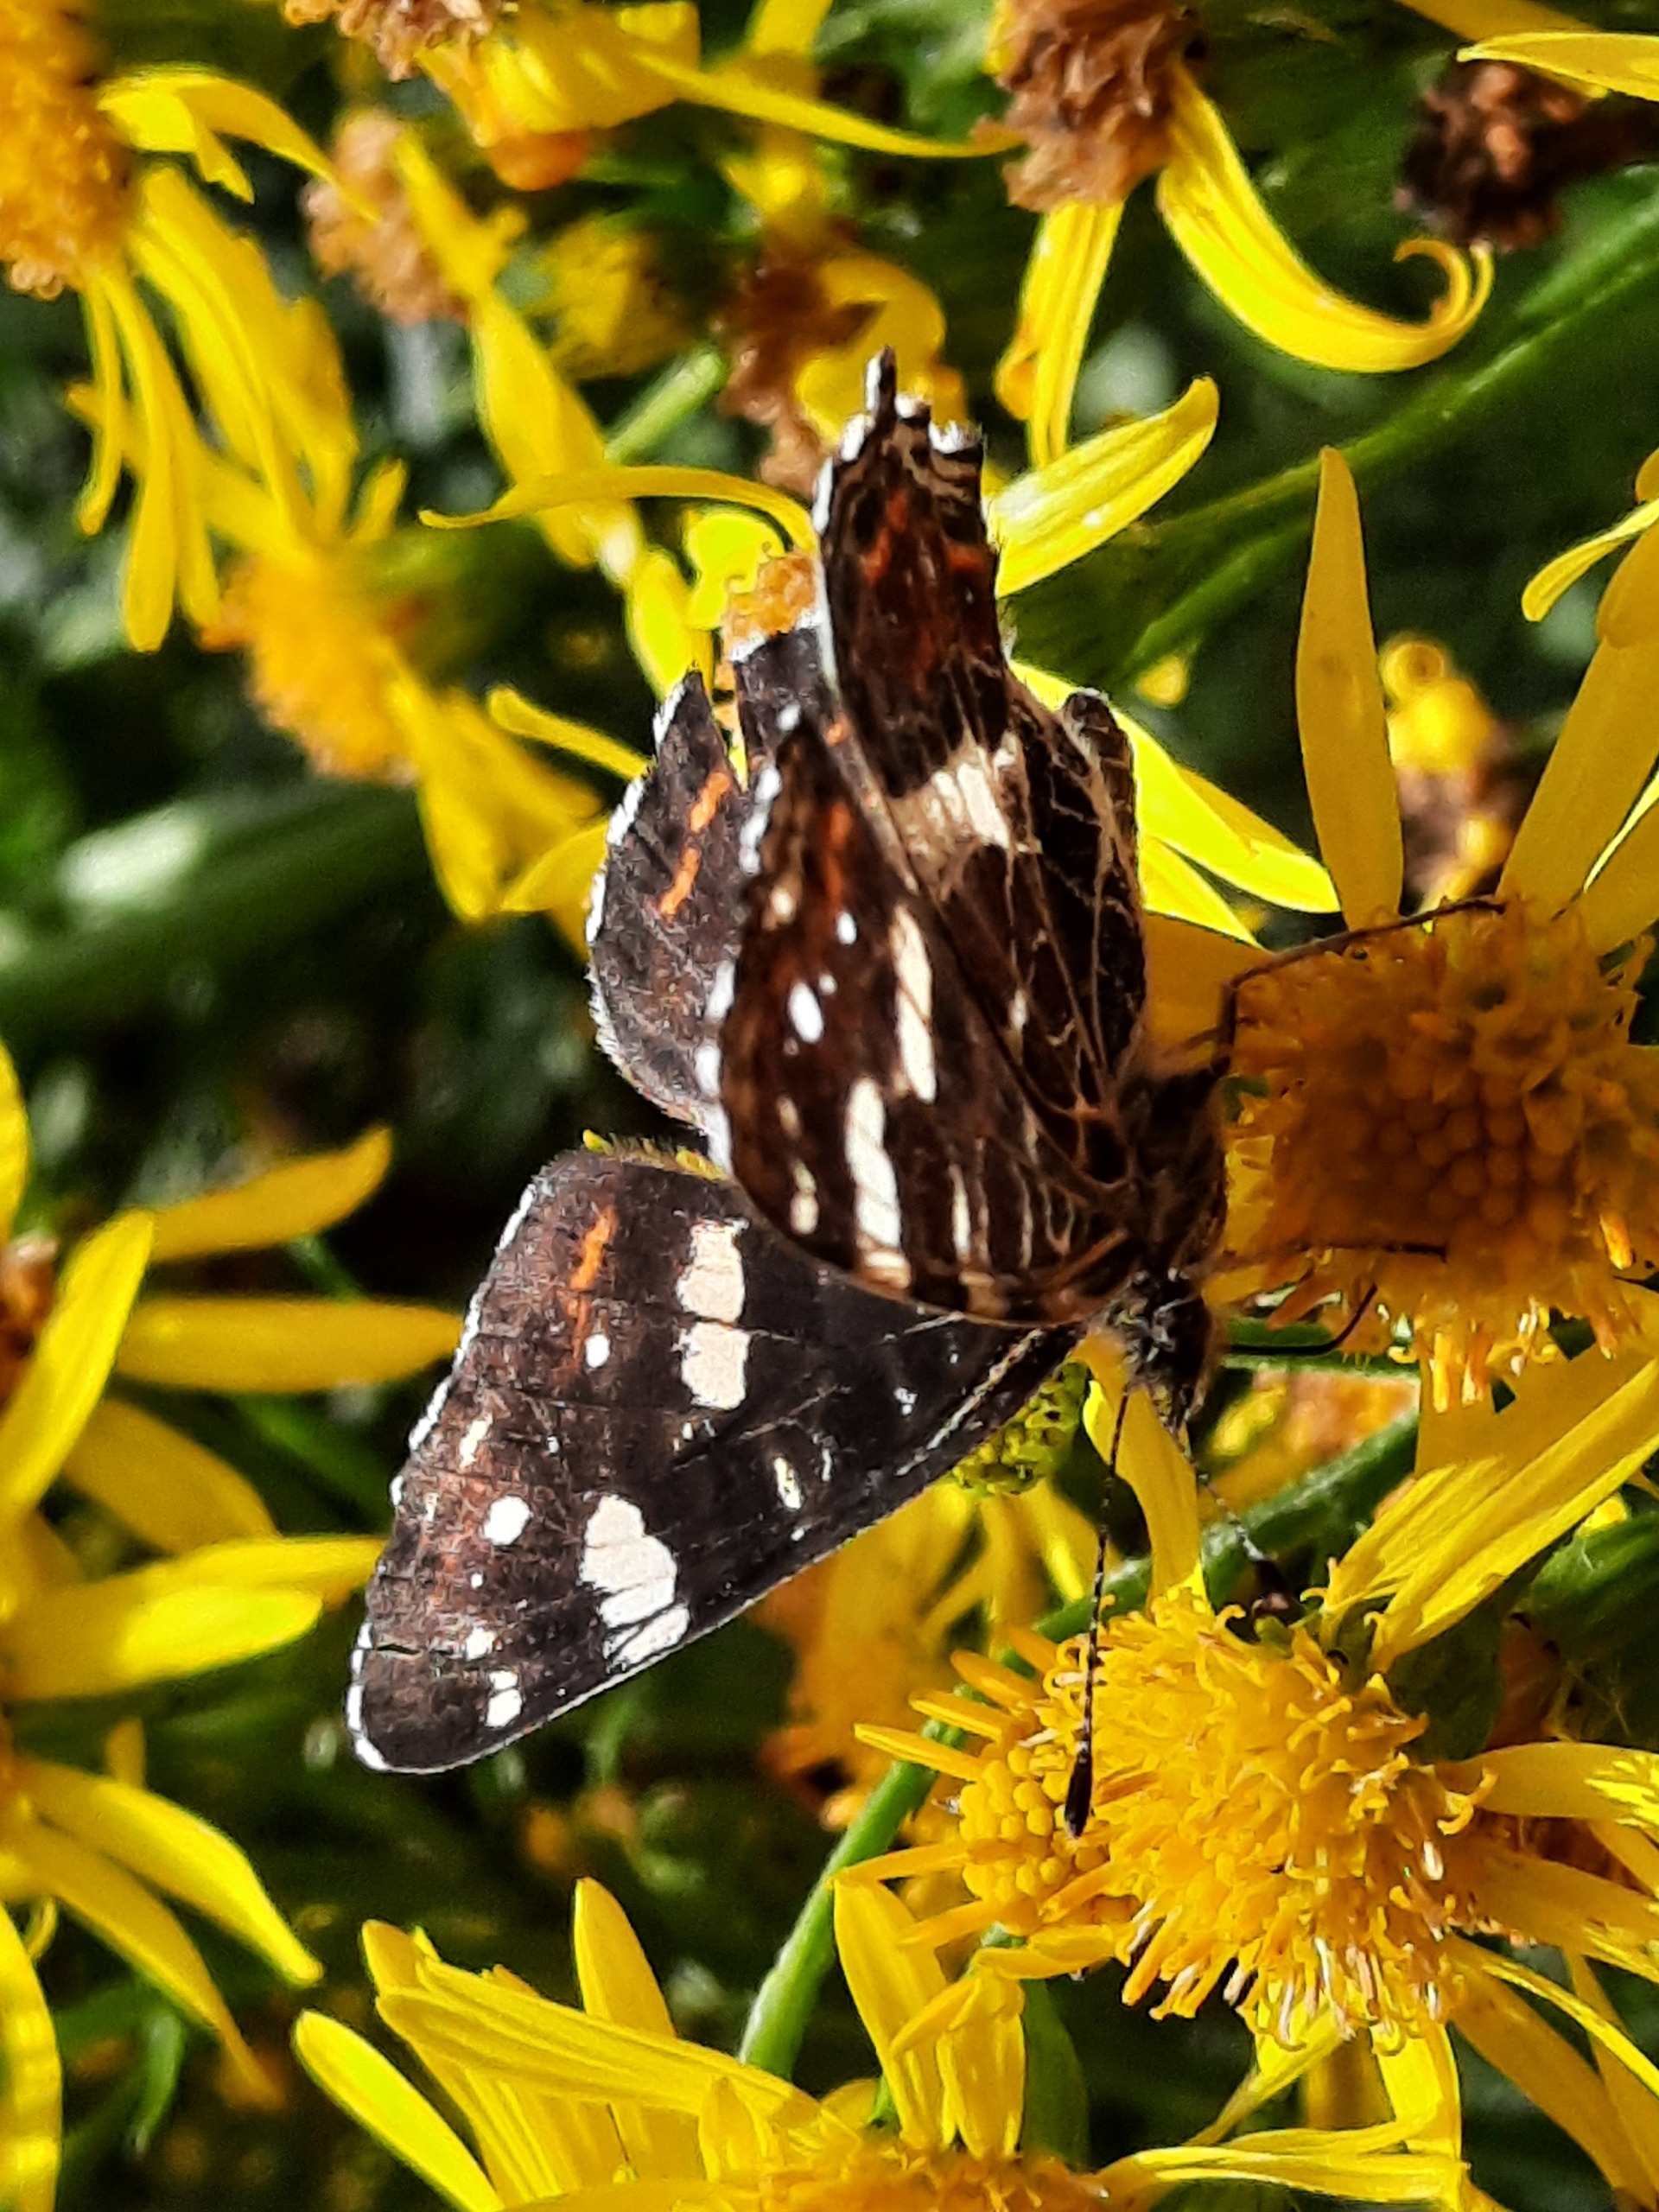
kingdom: Animalia
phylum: Arthropoda
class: Insecta
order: Lepidoptera
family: Nymphalidae
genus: Araschnia
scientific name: Araschnia levana
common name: Nældesommerfugl
